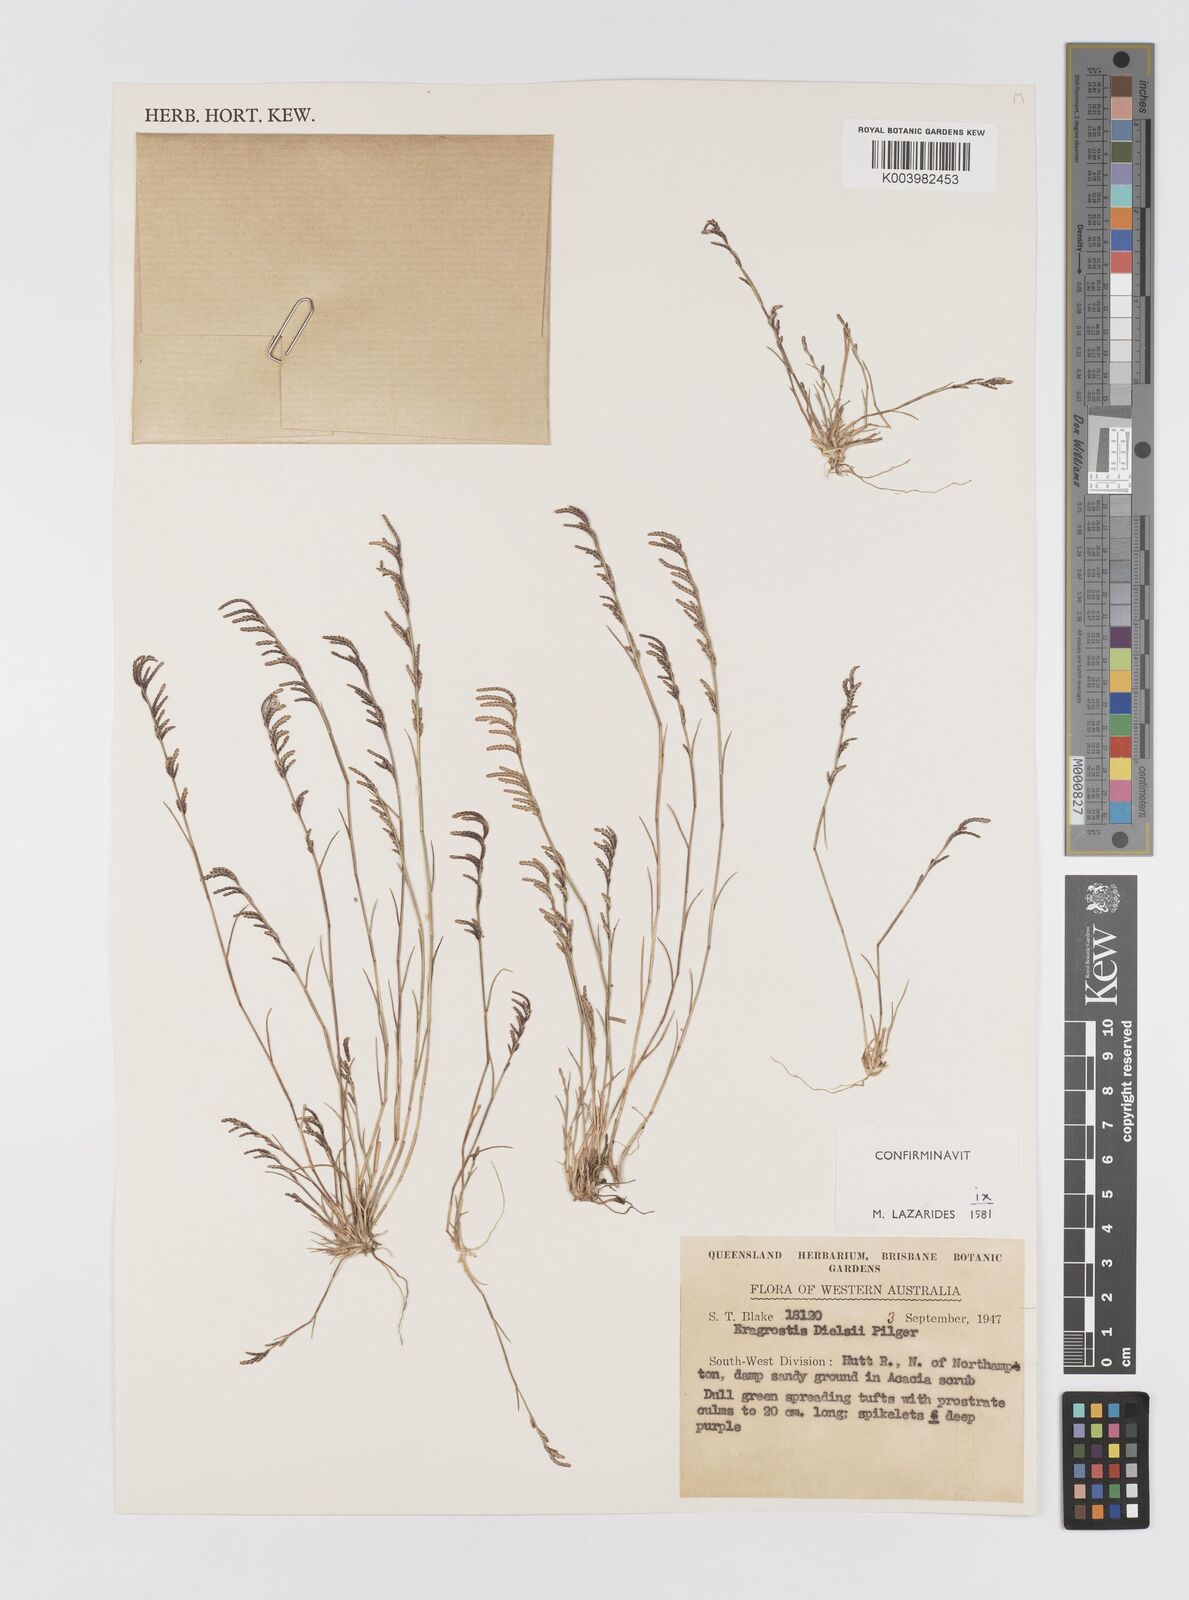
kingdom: Plantae
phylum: Tracheophyta
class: Liliopsida
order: Poales
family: Poaceae
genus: Eragrostis
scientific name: Eragrostis dielsii
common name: Lovegrass
